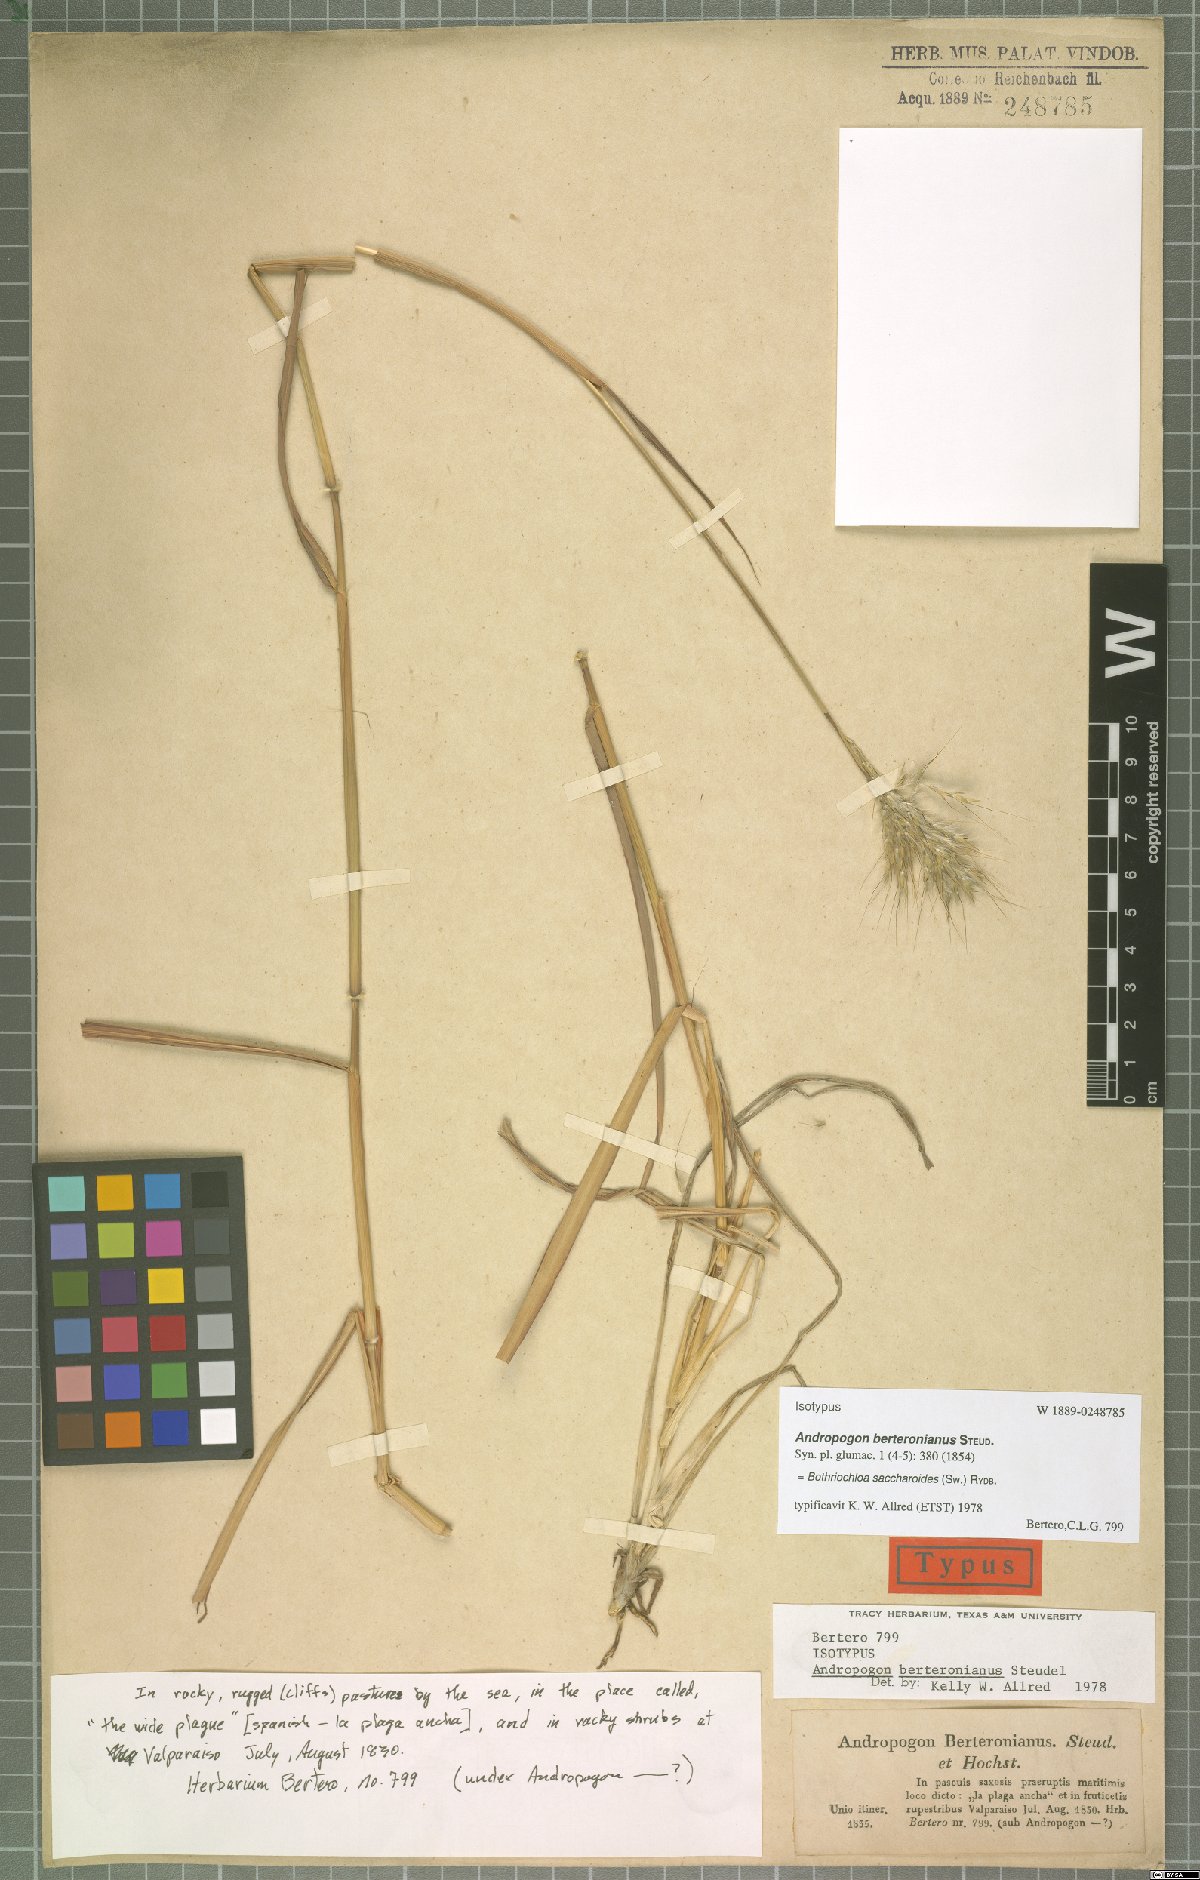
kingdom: Plantae
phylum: Tracheophyta
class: Liliopsida
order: Poales
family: Poaceae
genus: Bothriochloa
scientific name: Bothriochloa saccharoides
